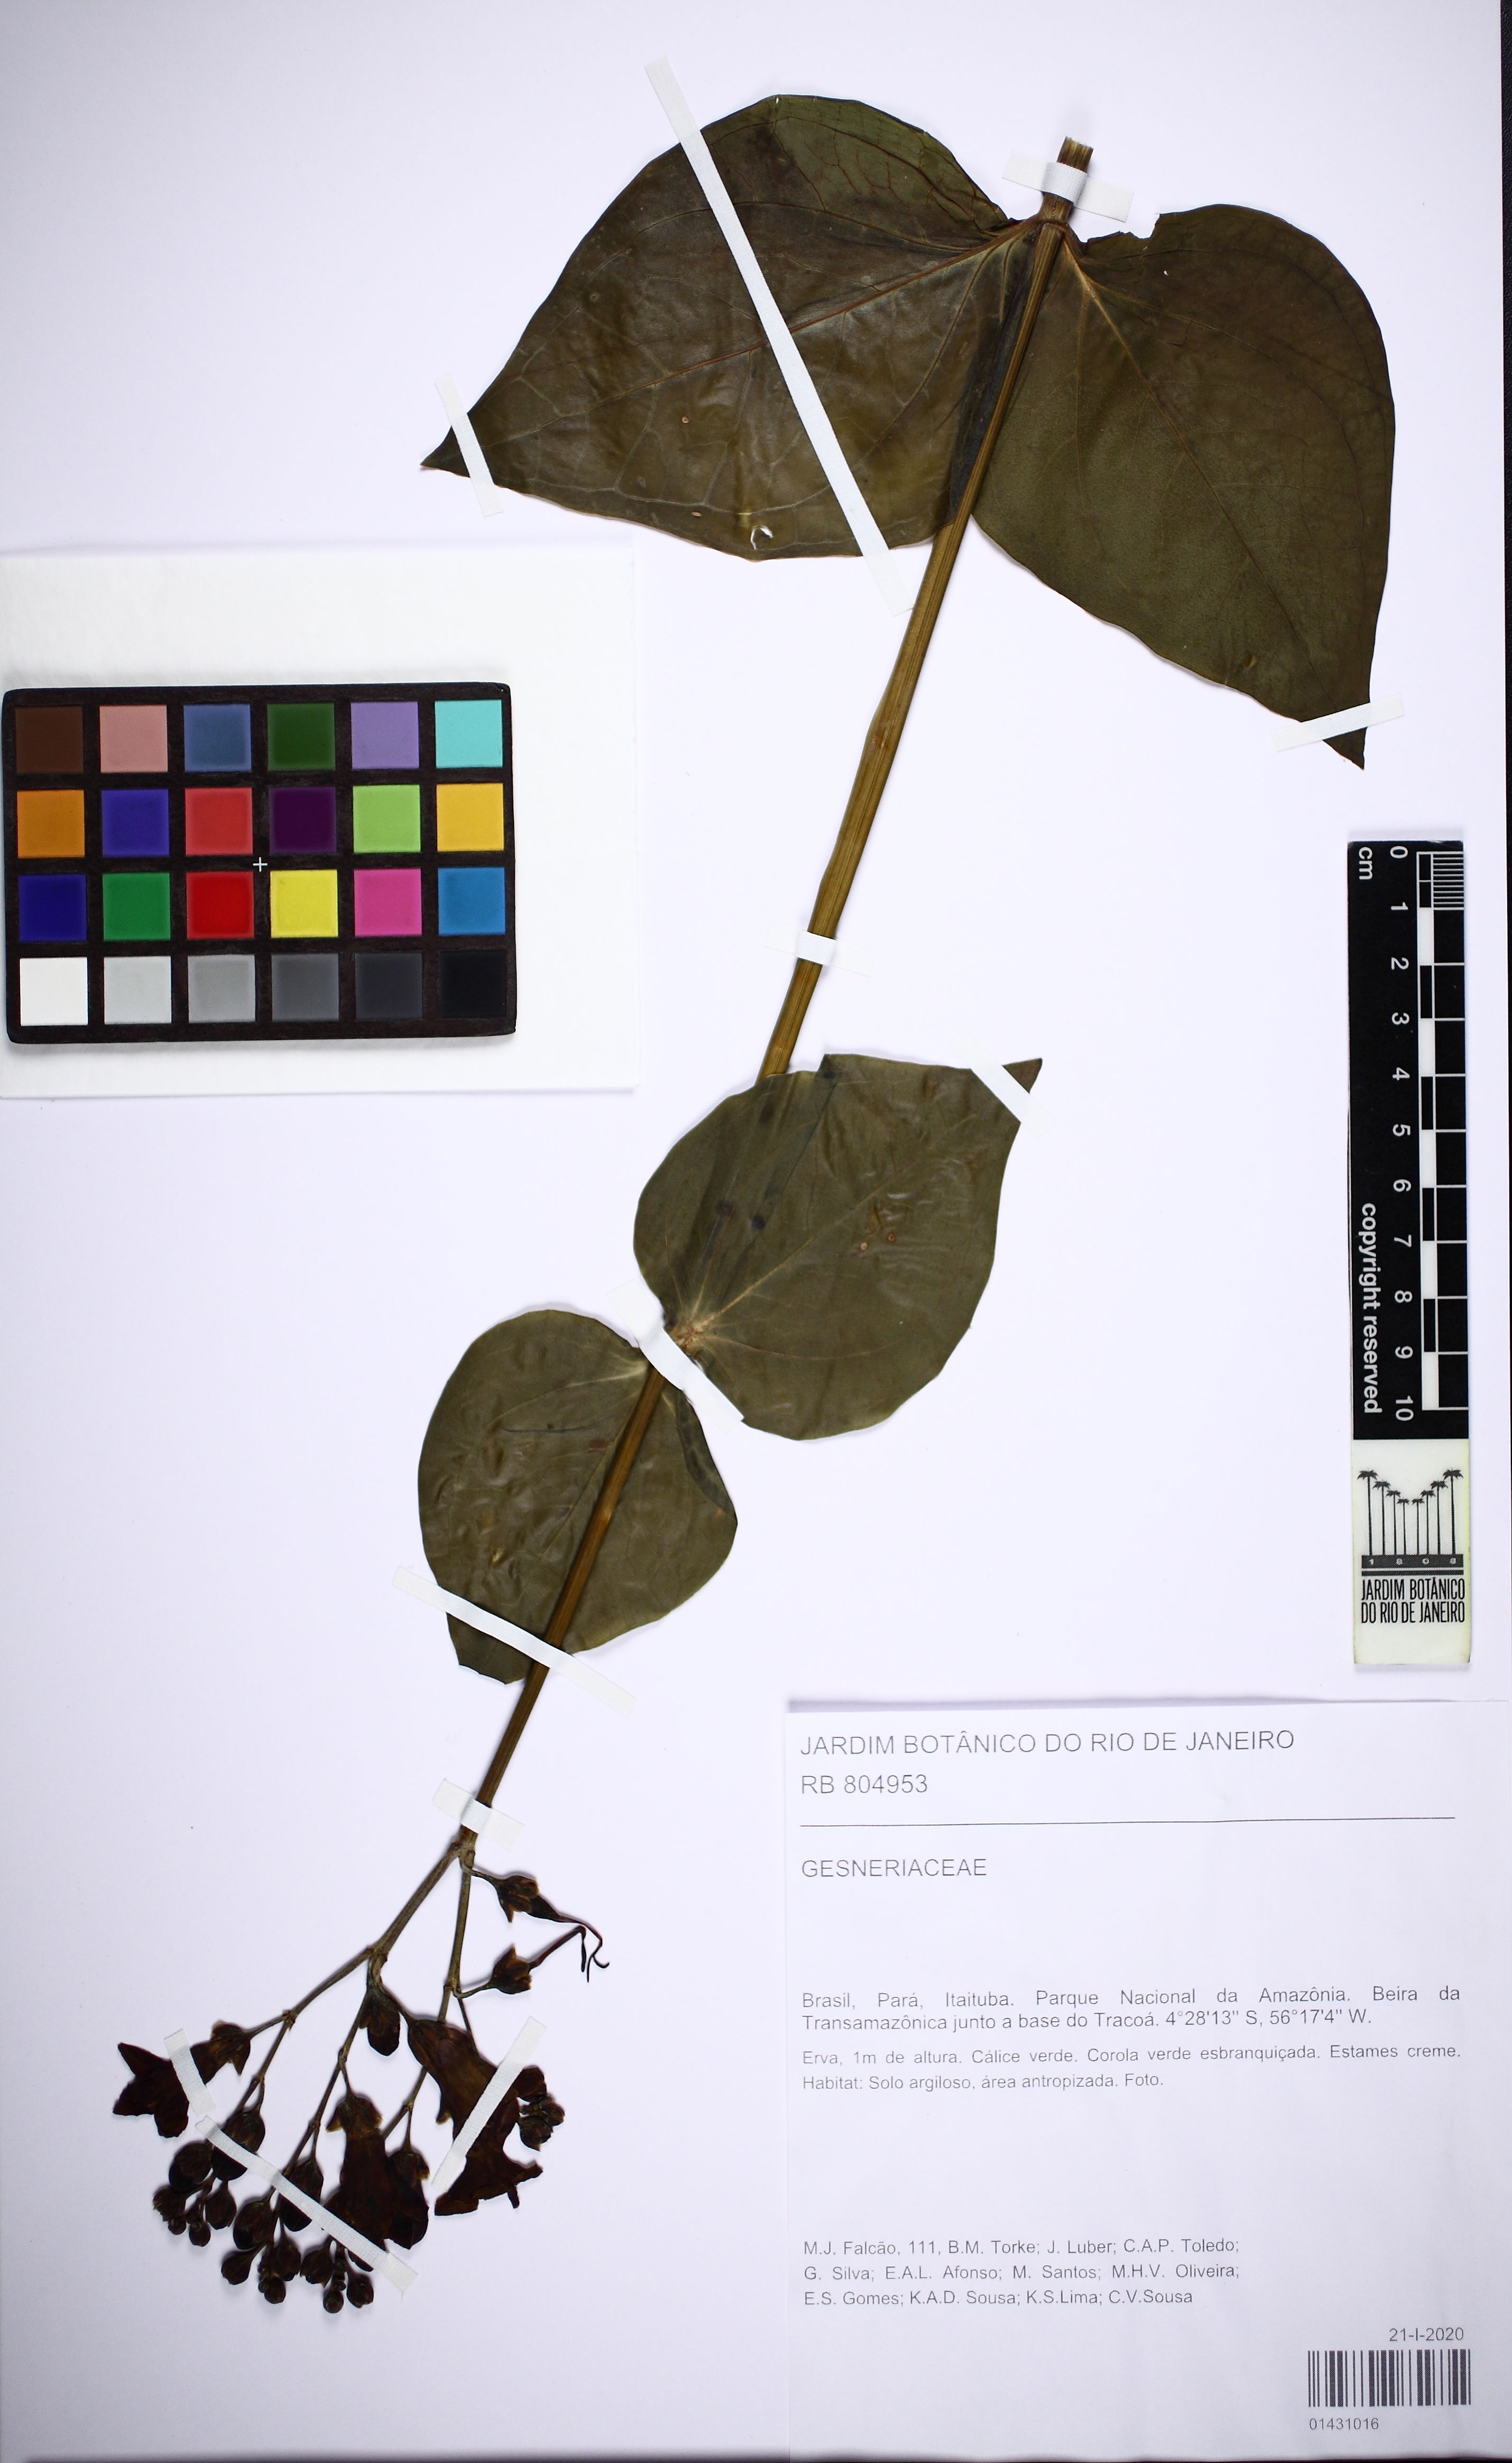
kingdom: Plantae
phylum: Tracheophyta
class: Magnoliopsida
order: Lamiales
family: Gesneriaceae
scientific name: Gesneriaceae
